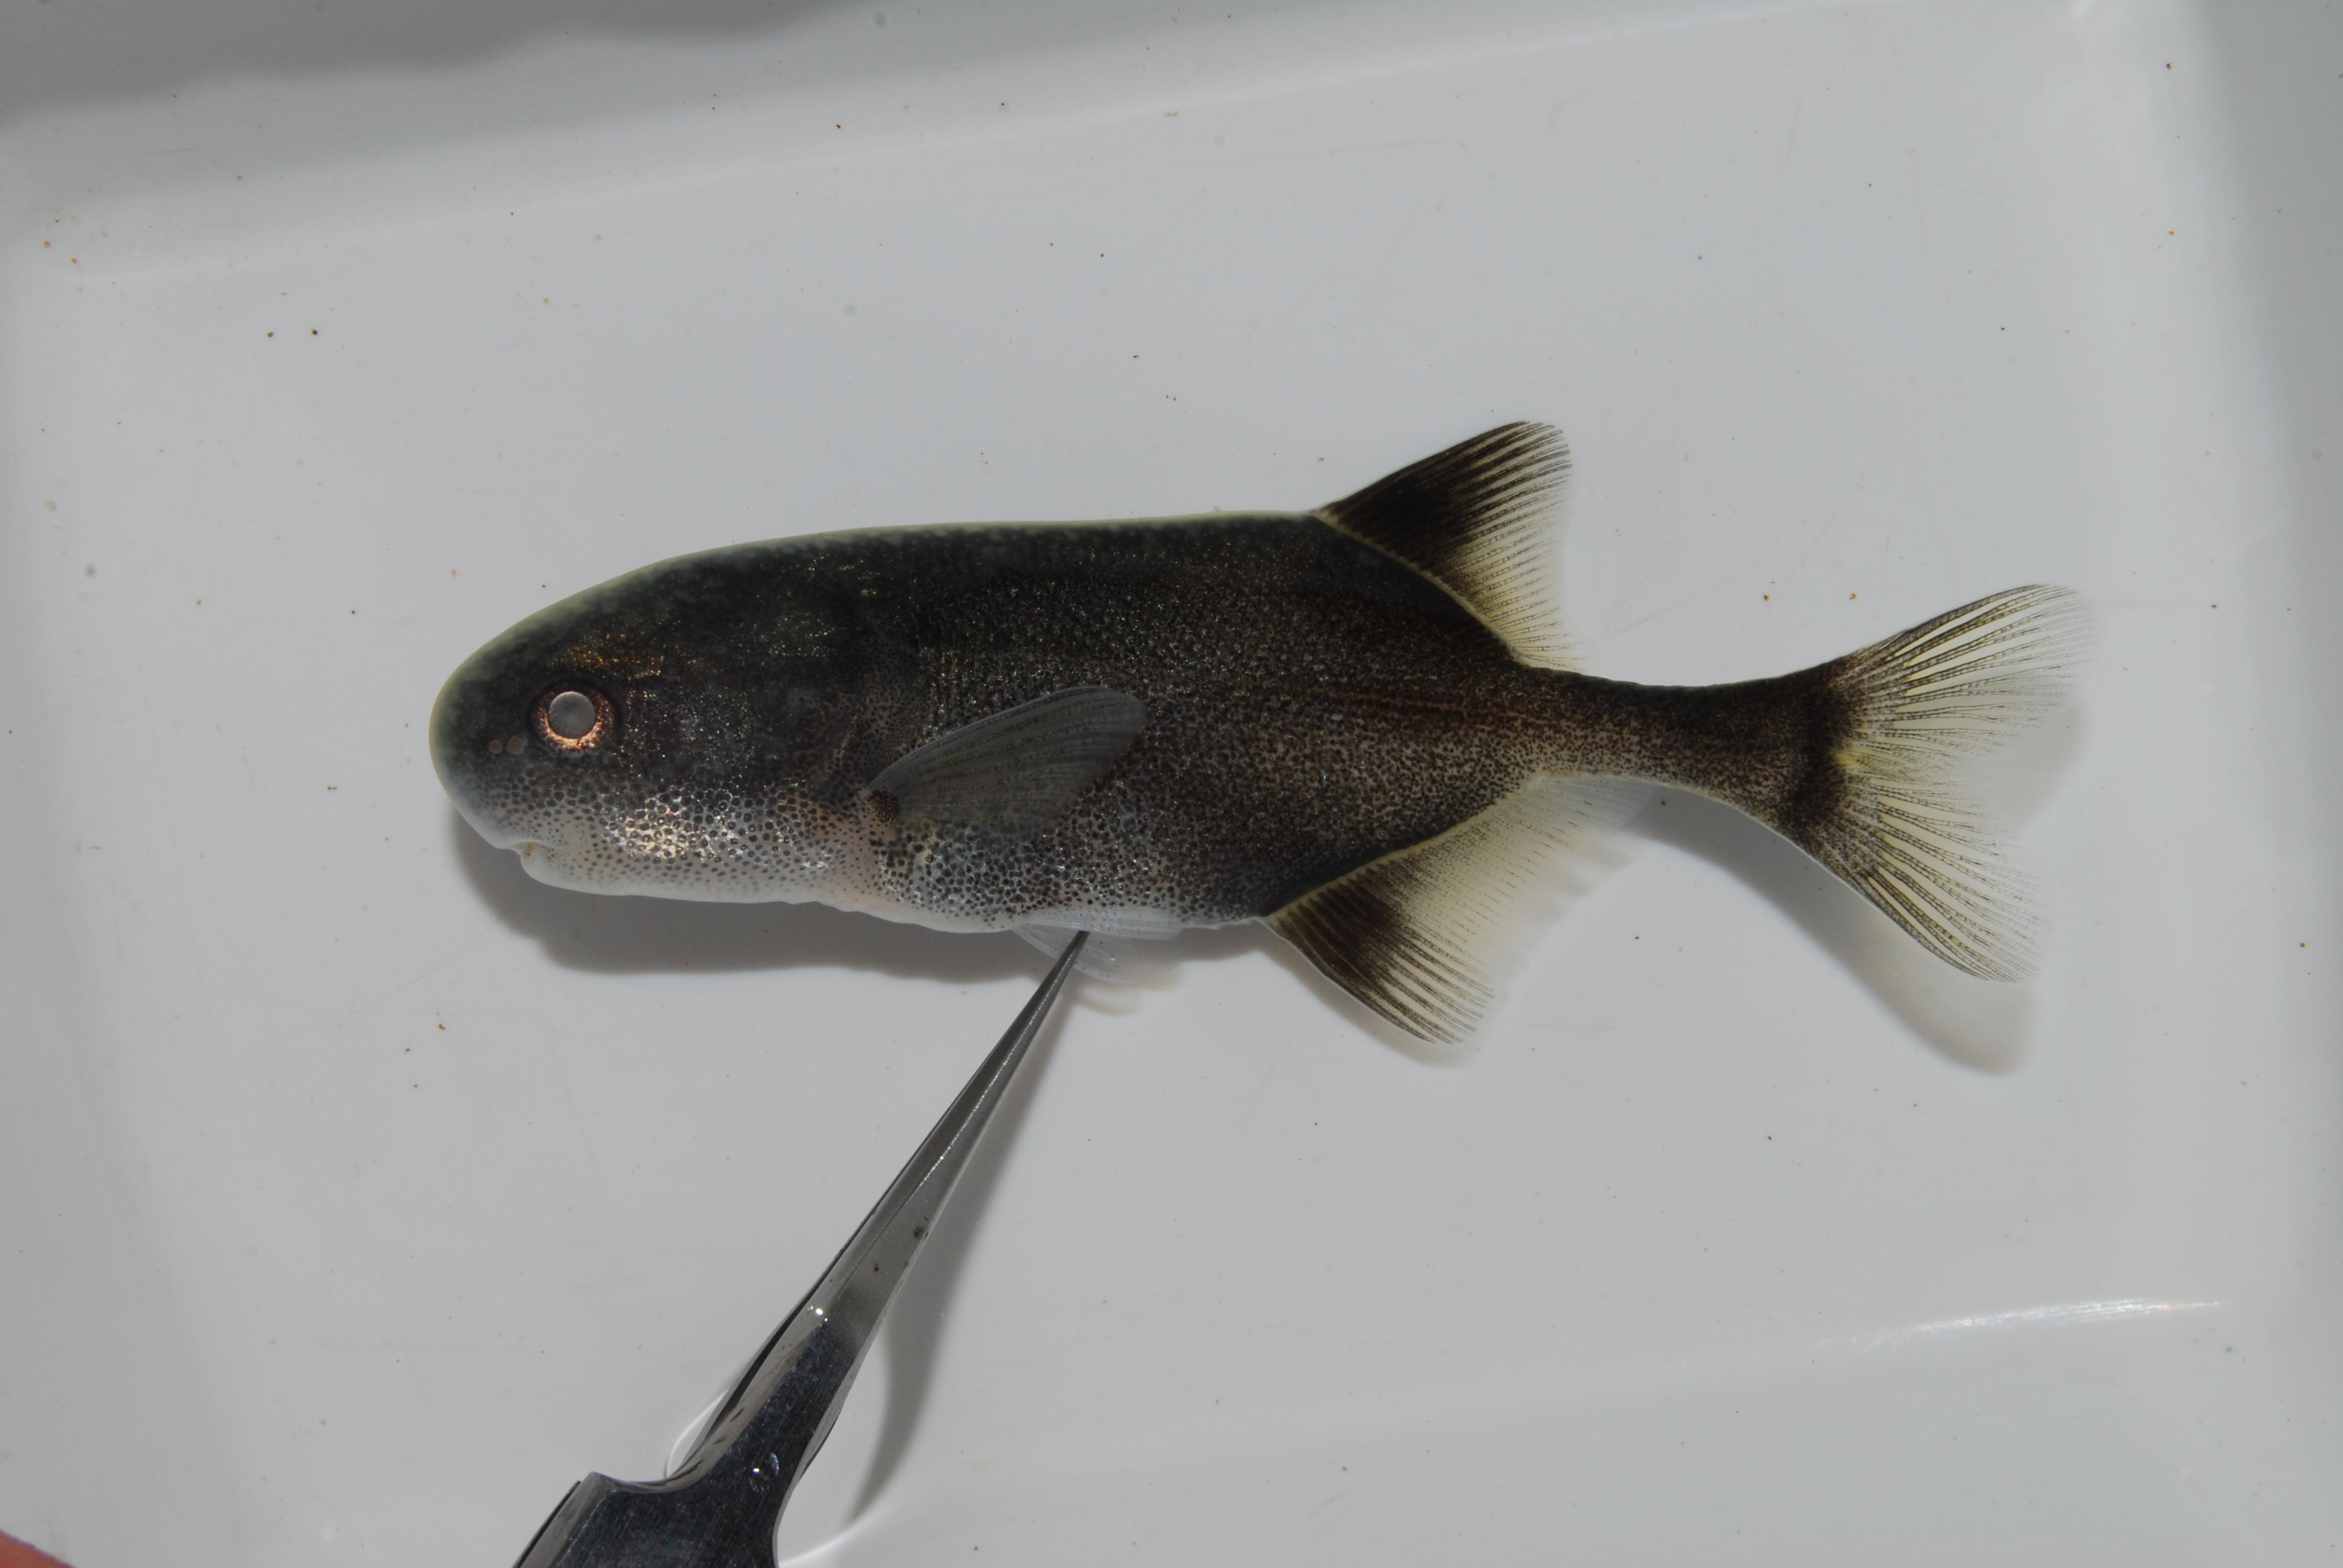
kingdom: Animalia
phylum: Chordata
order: Osteoglossiformes
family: Mormyridae
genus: Petrocephalus
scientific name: Petrocephalus
